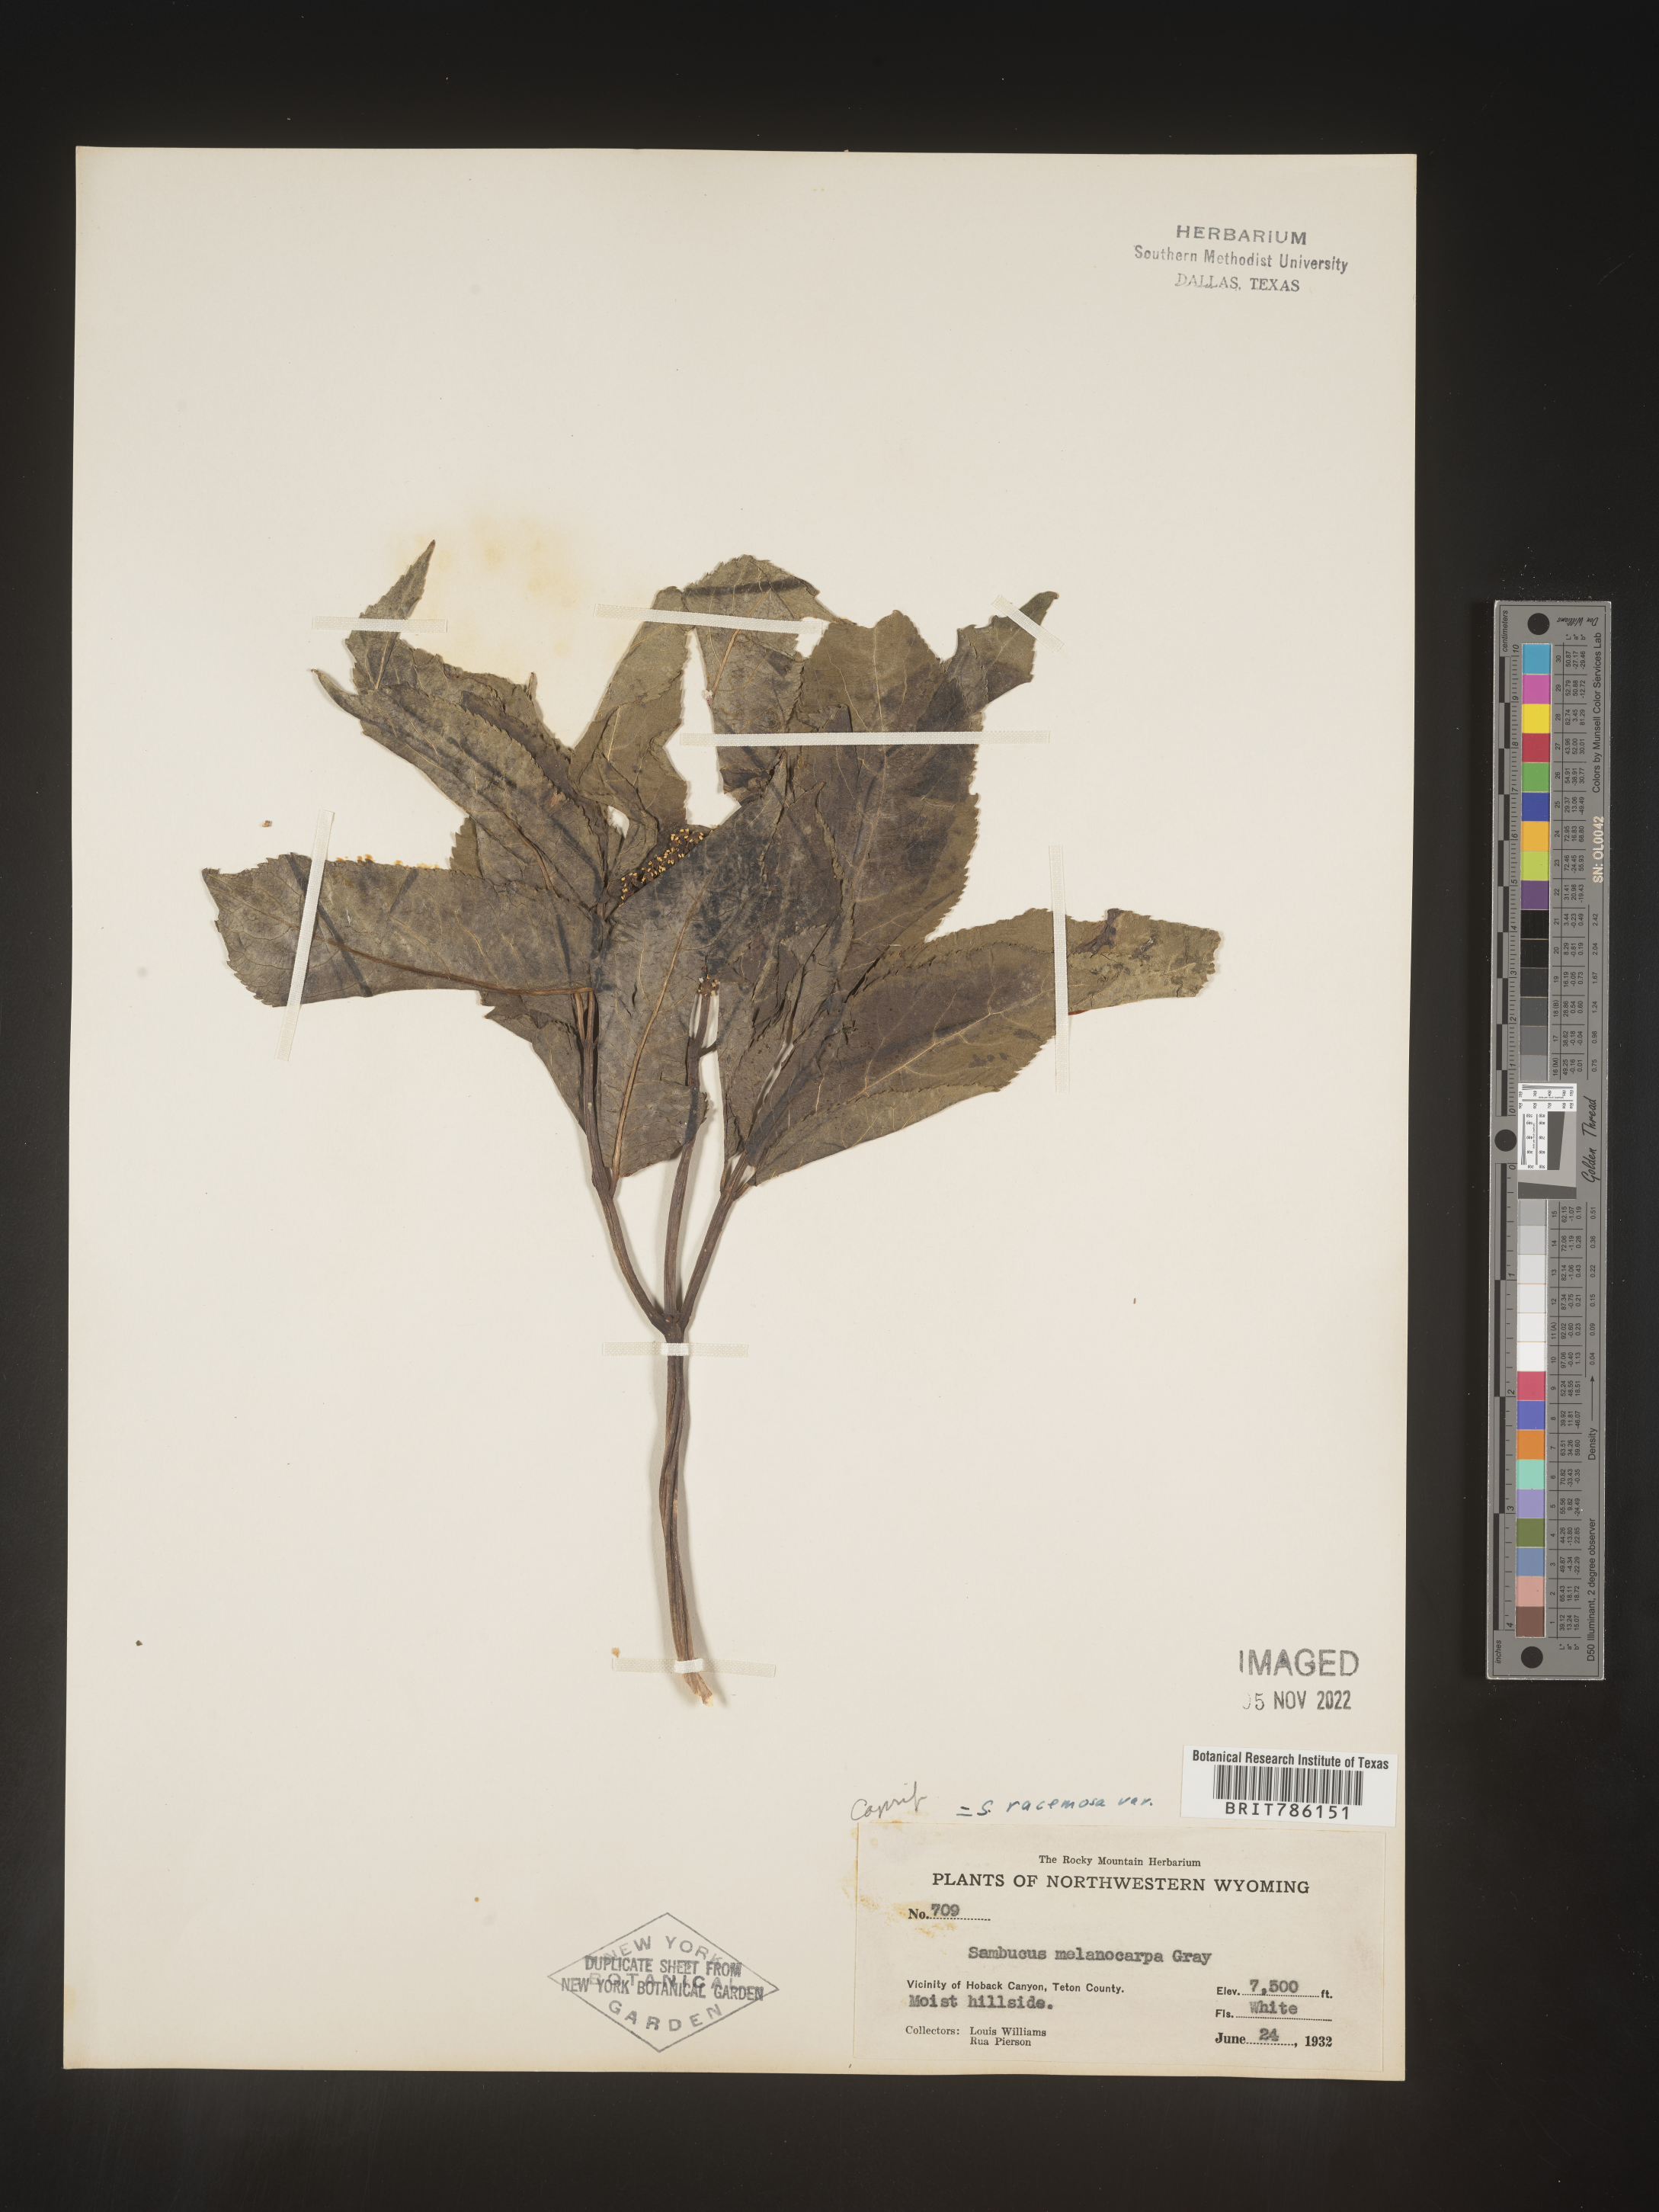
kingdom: Plantae
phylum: Tracheophyta
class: Magnoliopsida
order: Dipsacales
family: Viburnaceae
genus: Sambucus
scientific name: Sambucus
